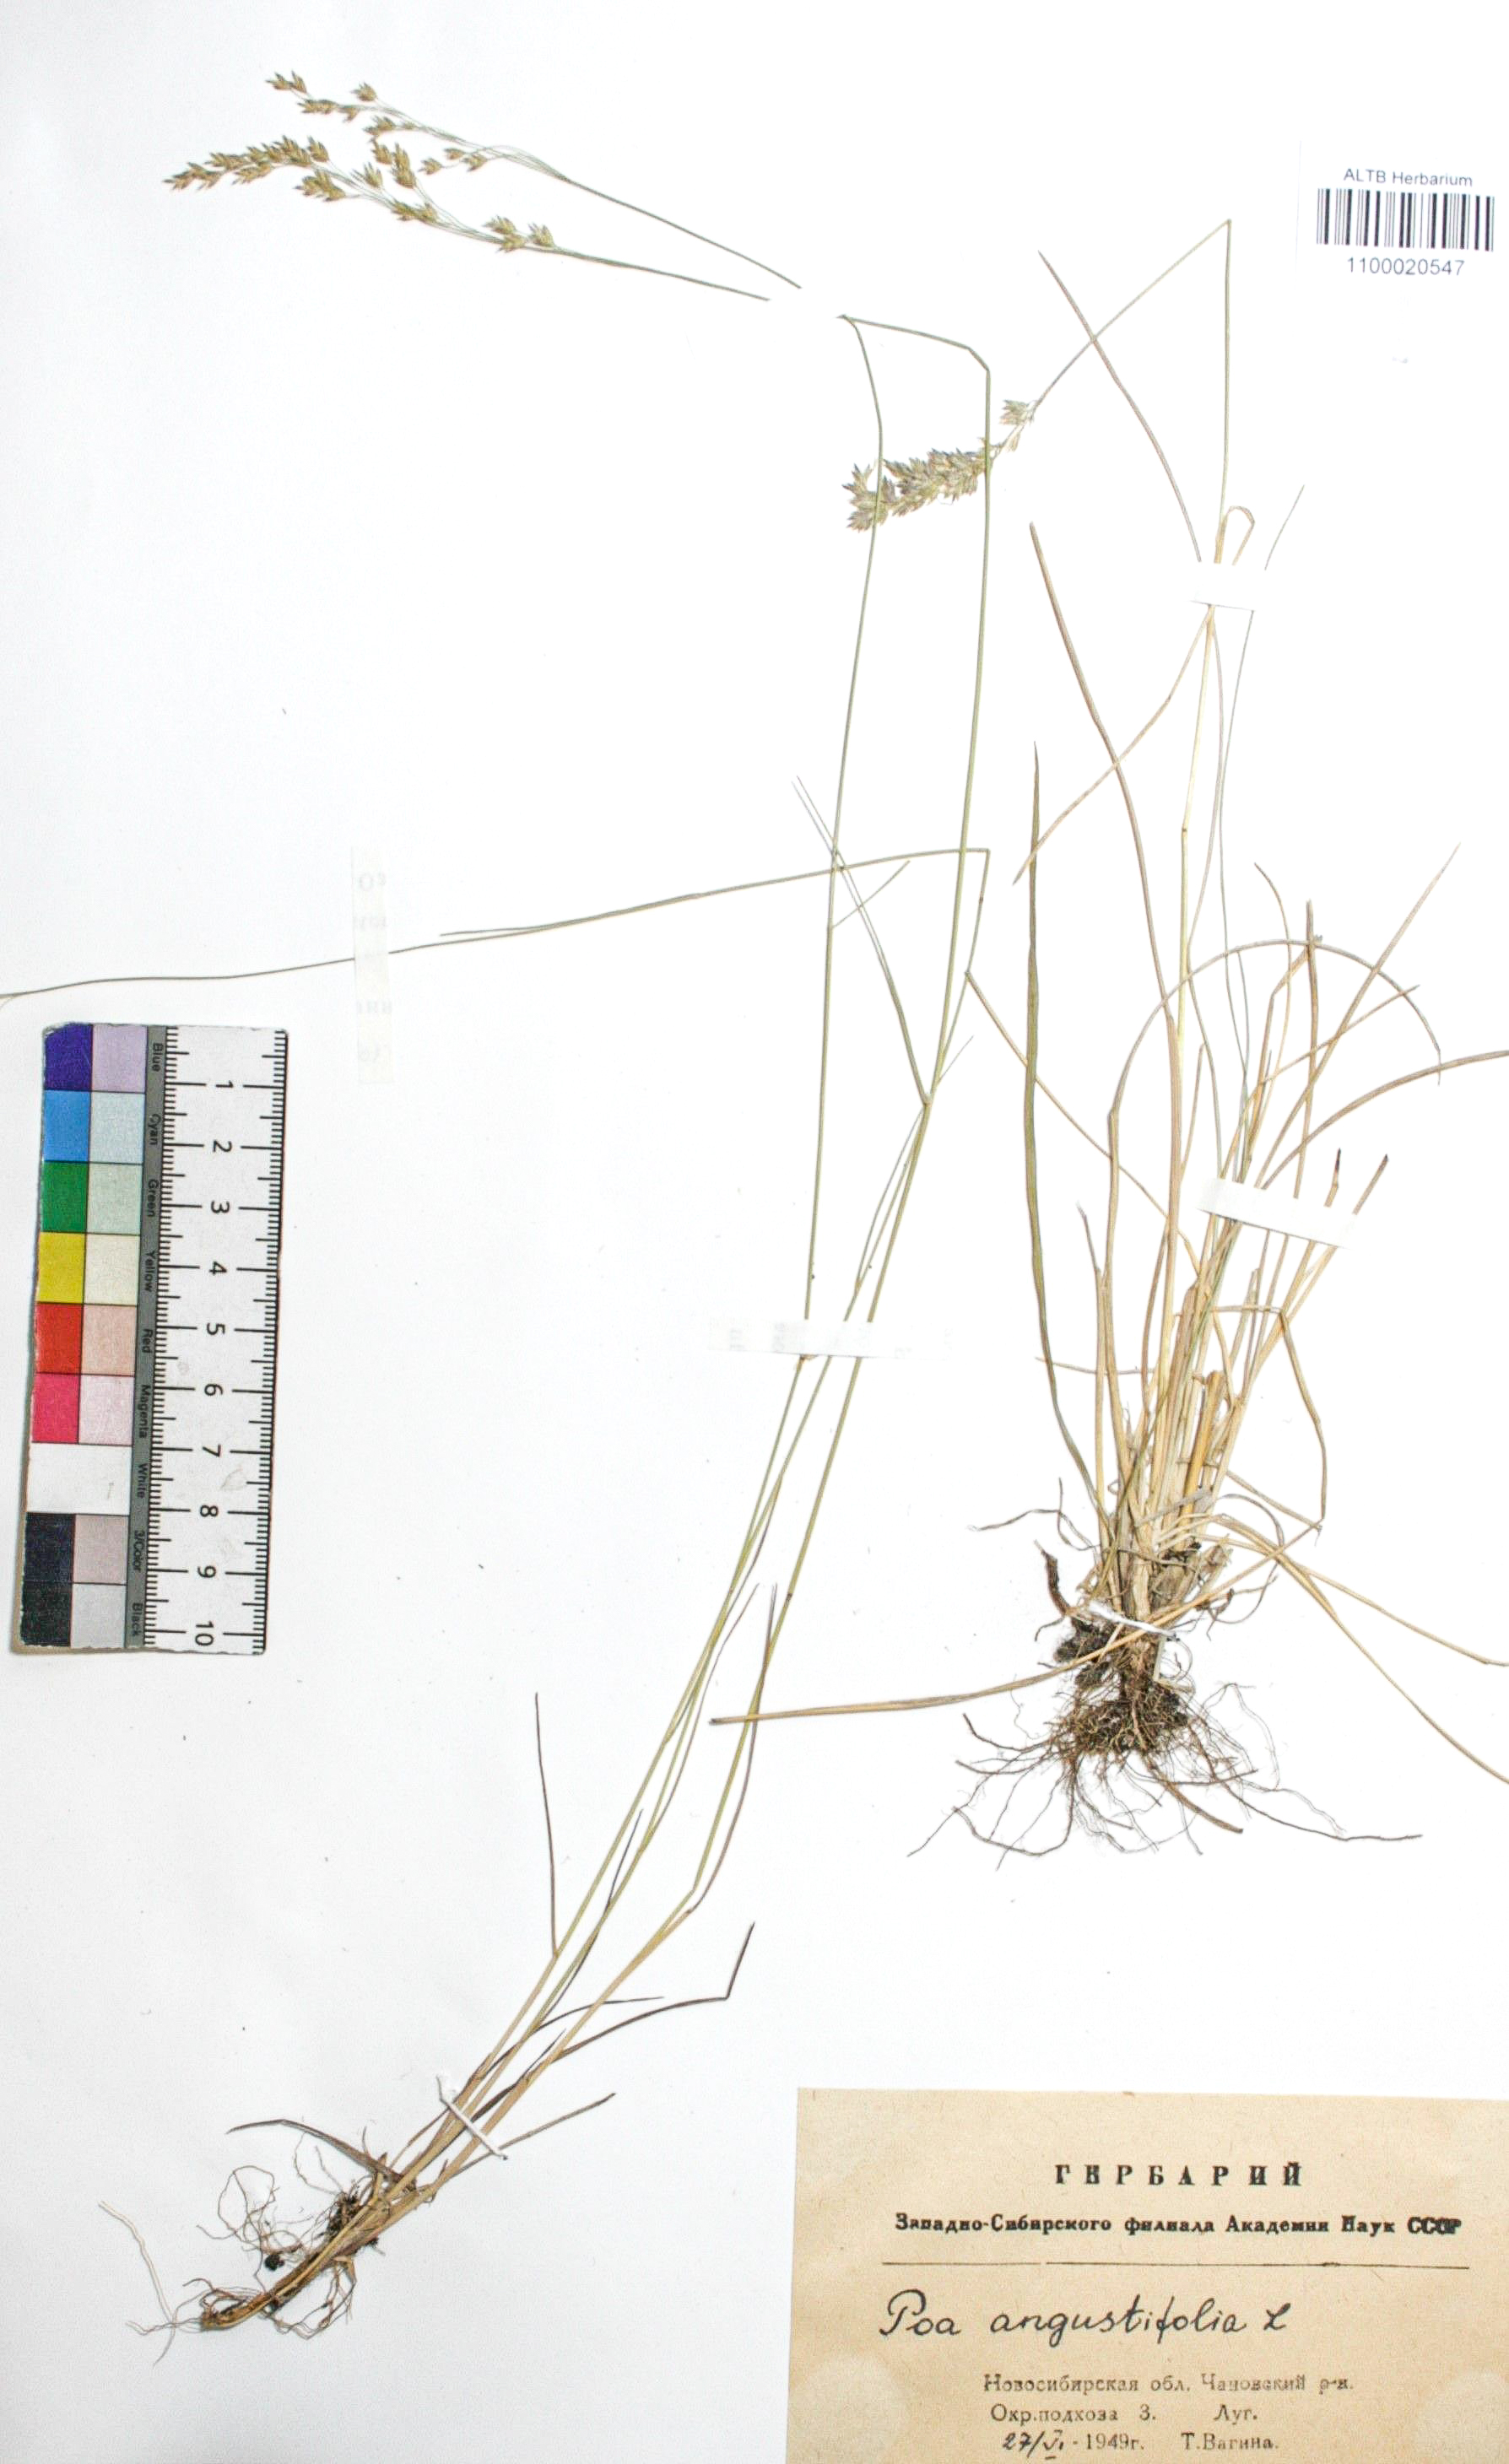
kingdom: Plantae
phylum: Tracheophyta
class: Liliopsida
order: Poales
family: Poaceae
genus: Poa
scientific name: Poa angustifolia
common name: Narrow-leaved meadow-grass
